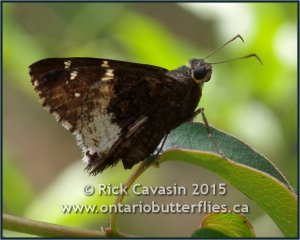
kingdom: Animalia
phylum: Arthropoda
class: Insecta
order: Lepidoptera
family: Hesperiidae
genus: Achalarus
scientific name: Achalarus lyciades
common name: Hoary Edge
